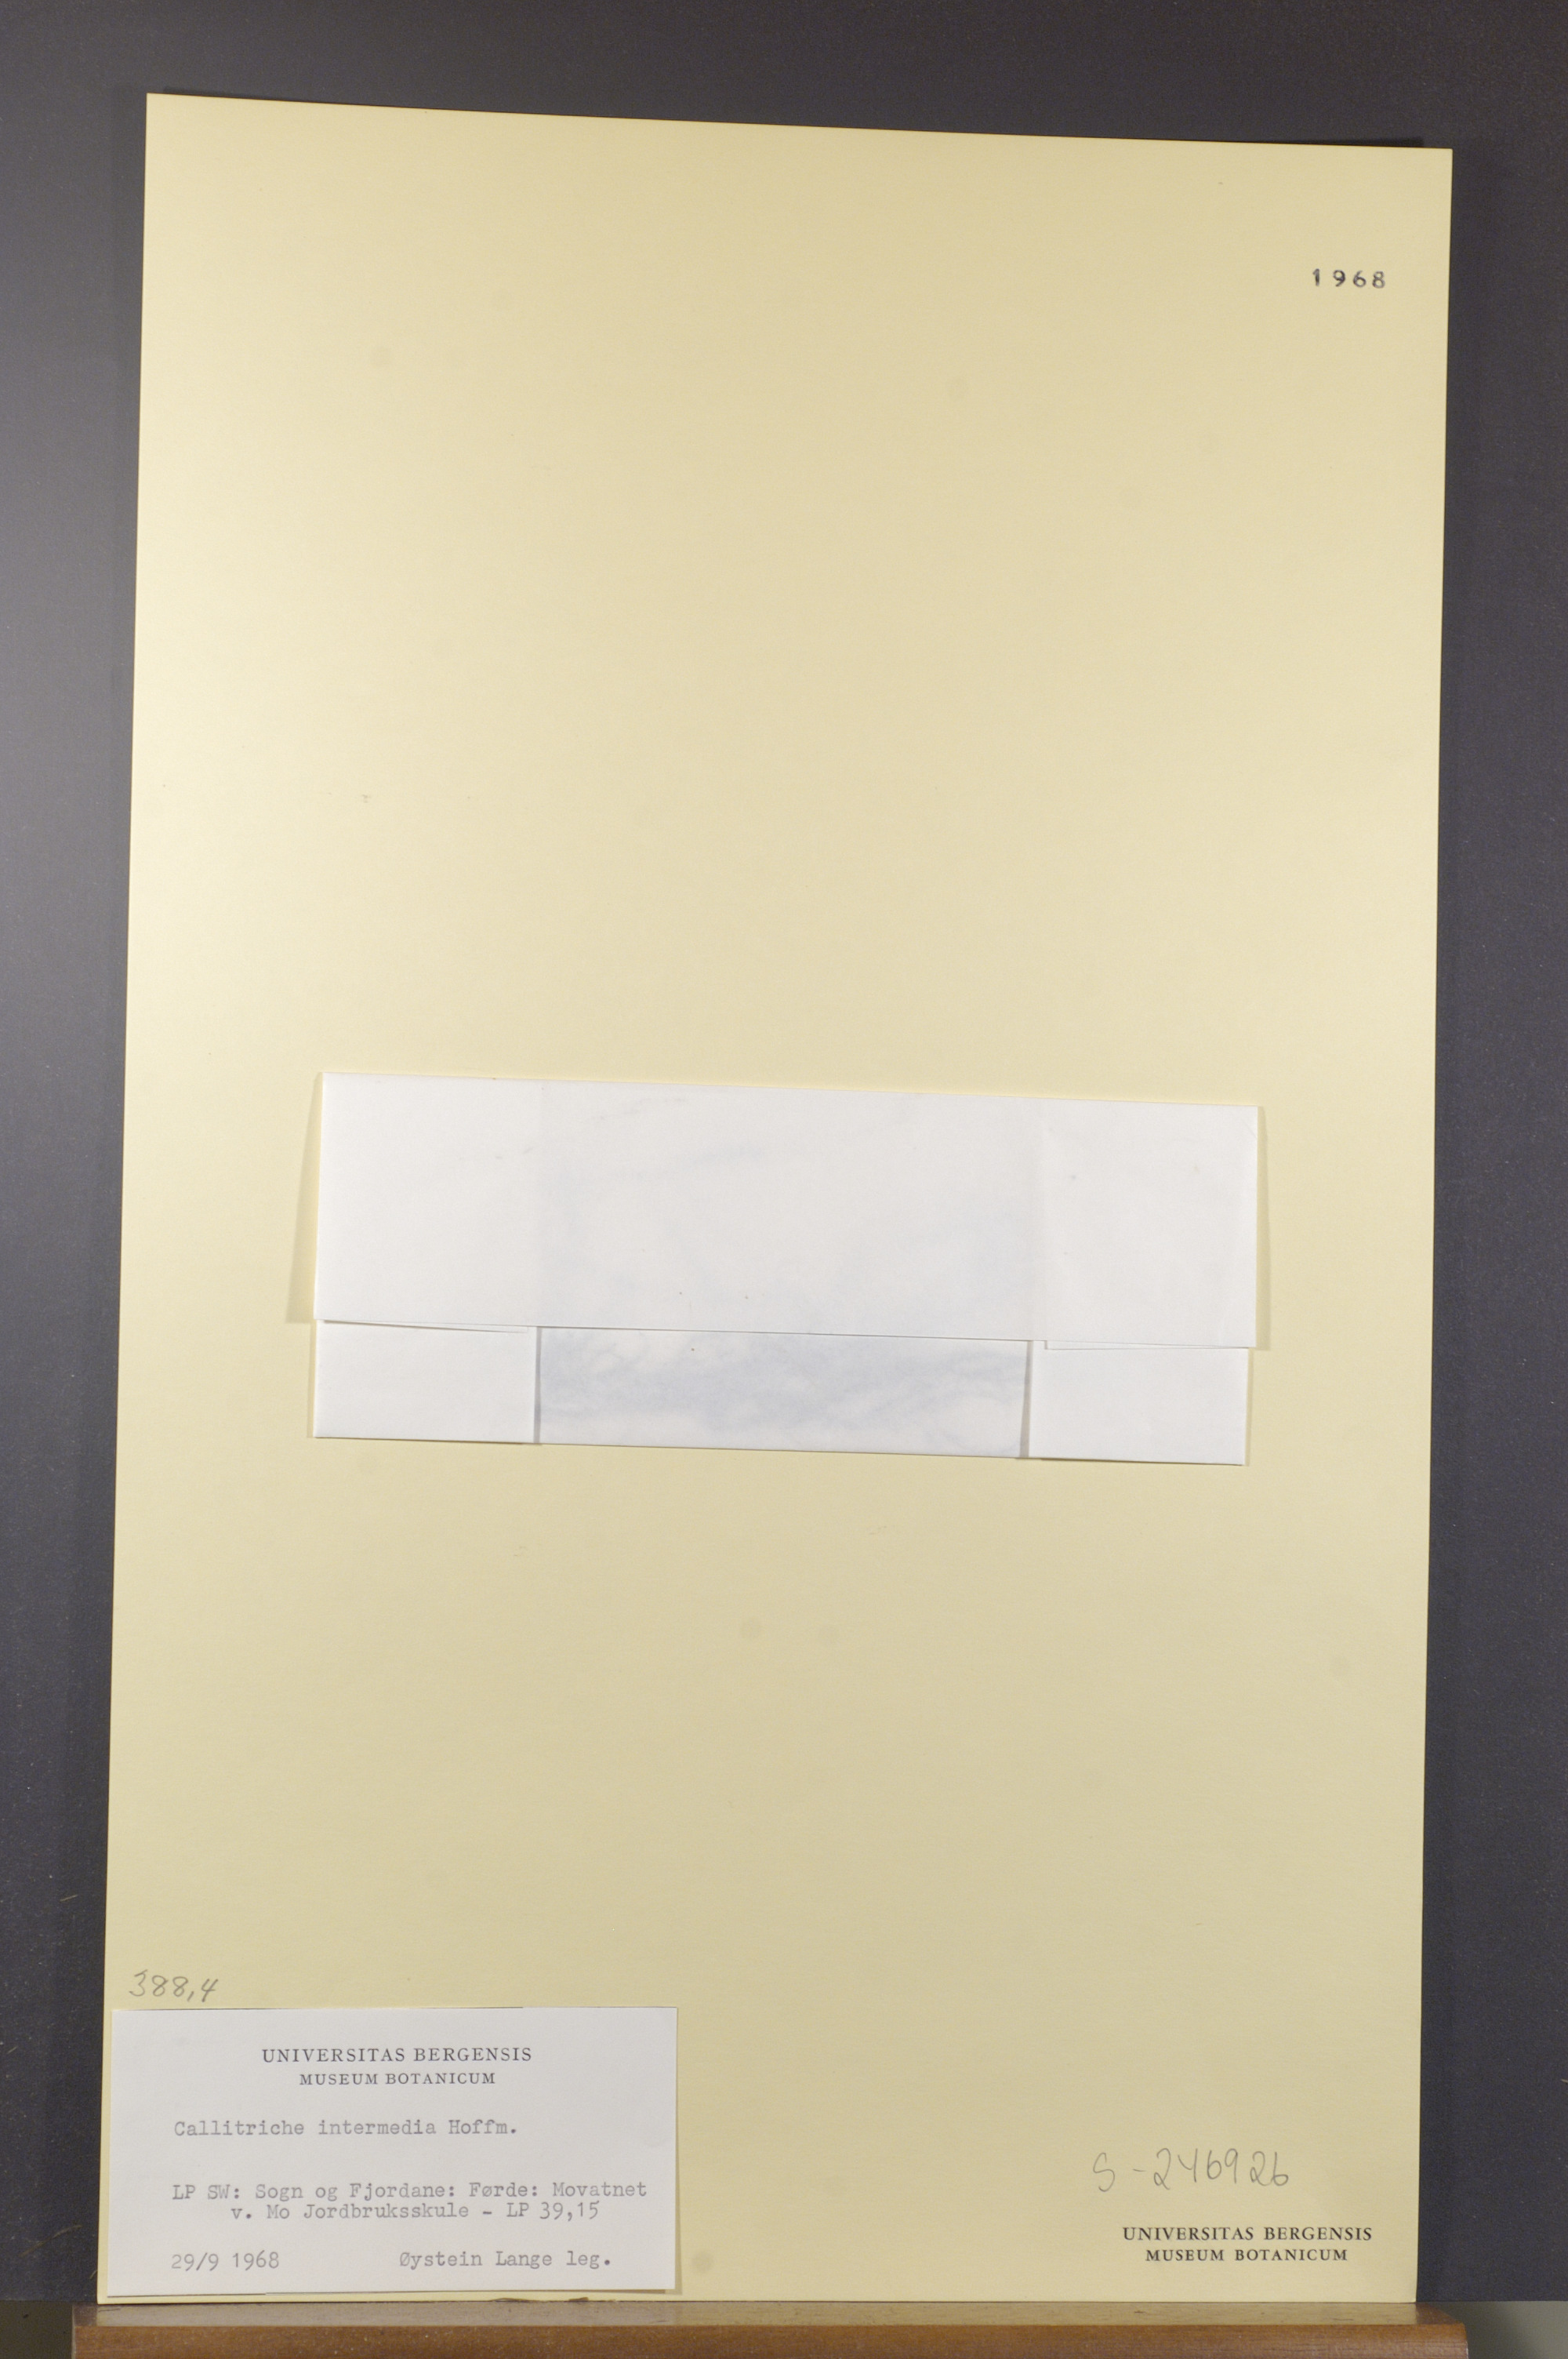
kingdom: Plantae
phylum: Tracheophyta
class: Magnoliopsida
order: Lamiales
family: Plantaginaceae
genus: Callitriche
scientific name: Callitriche hamulata
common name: Intermediate water-starwort
